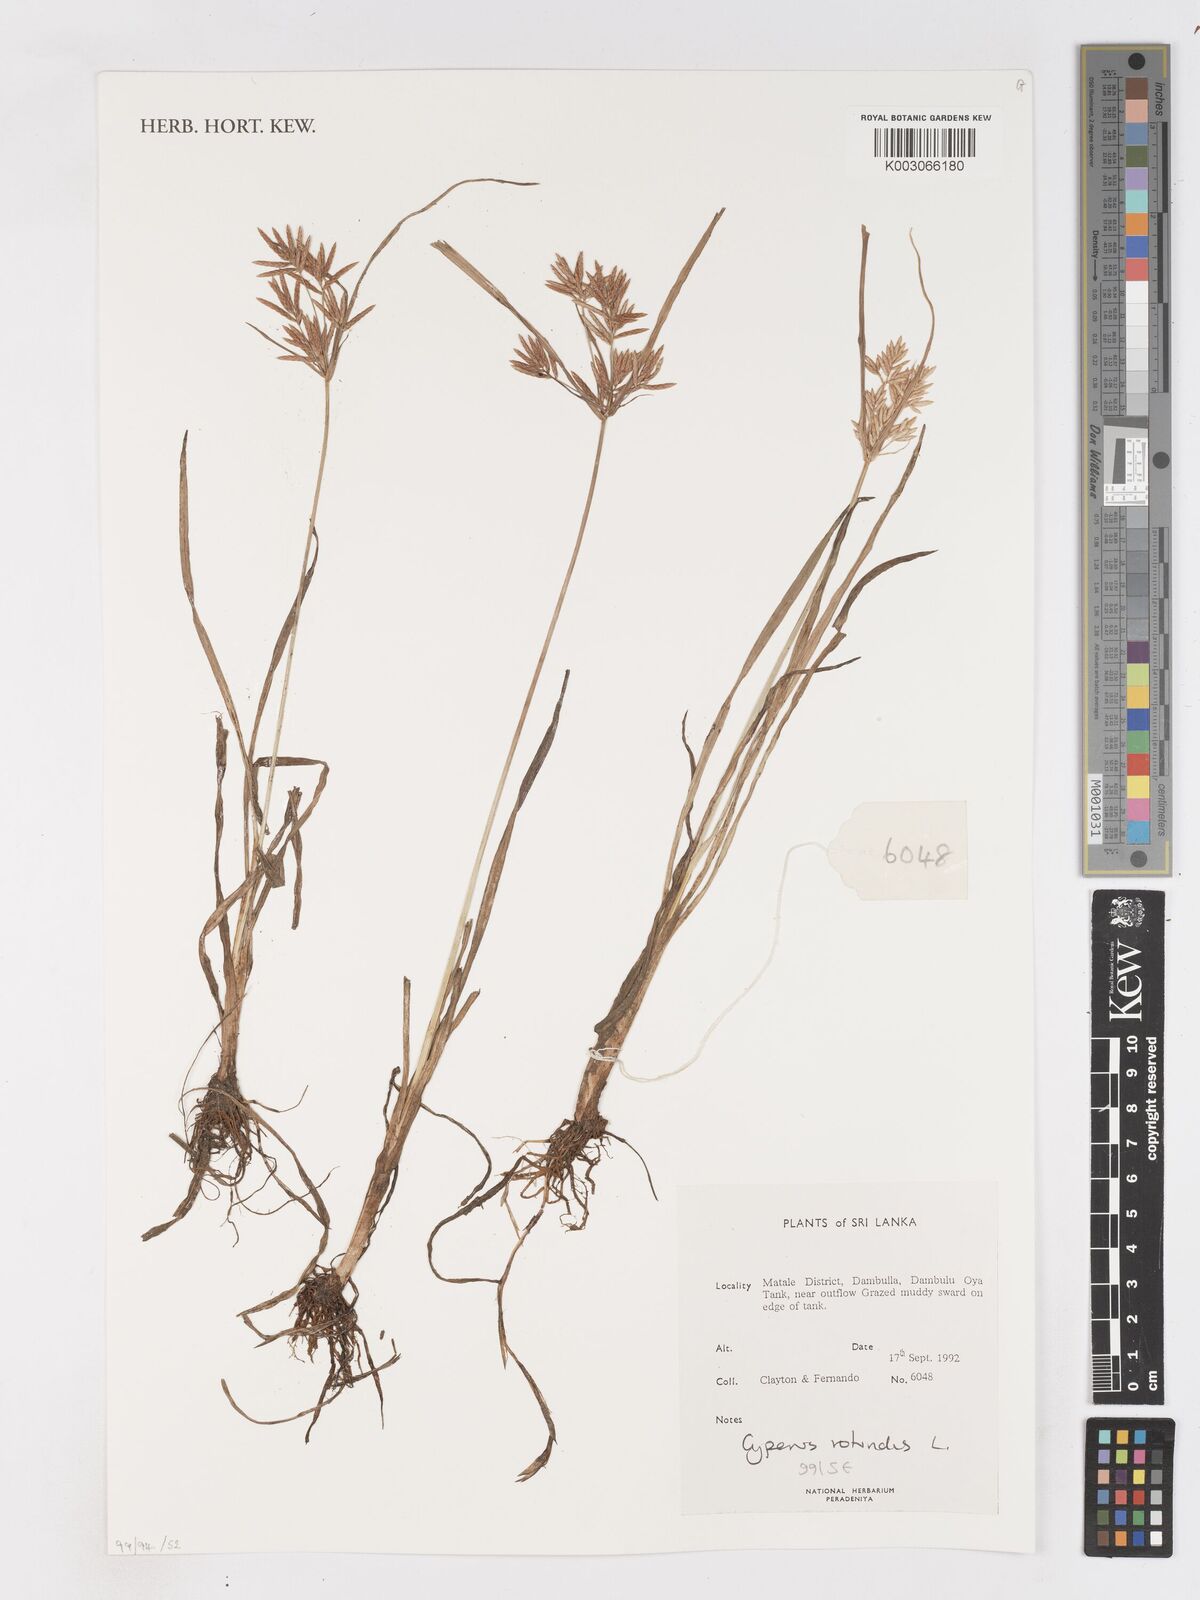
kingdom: Plantae
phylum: Tracheophyta
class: Liliopsida
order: Poales
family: Cyperaceae
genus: Cyperus
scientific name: Cyperus rotundus
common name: Nutgrass
